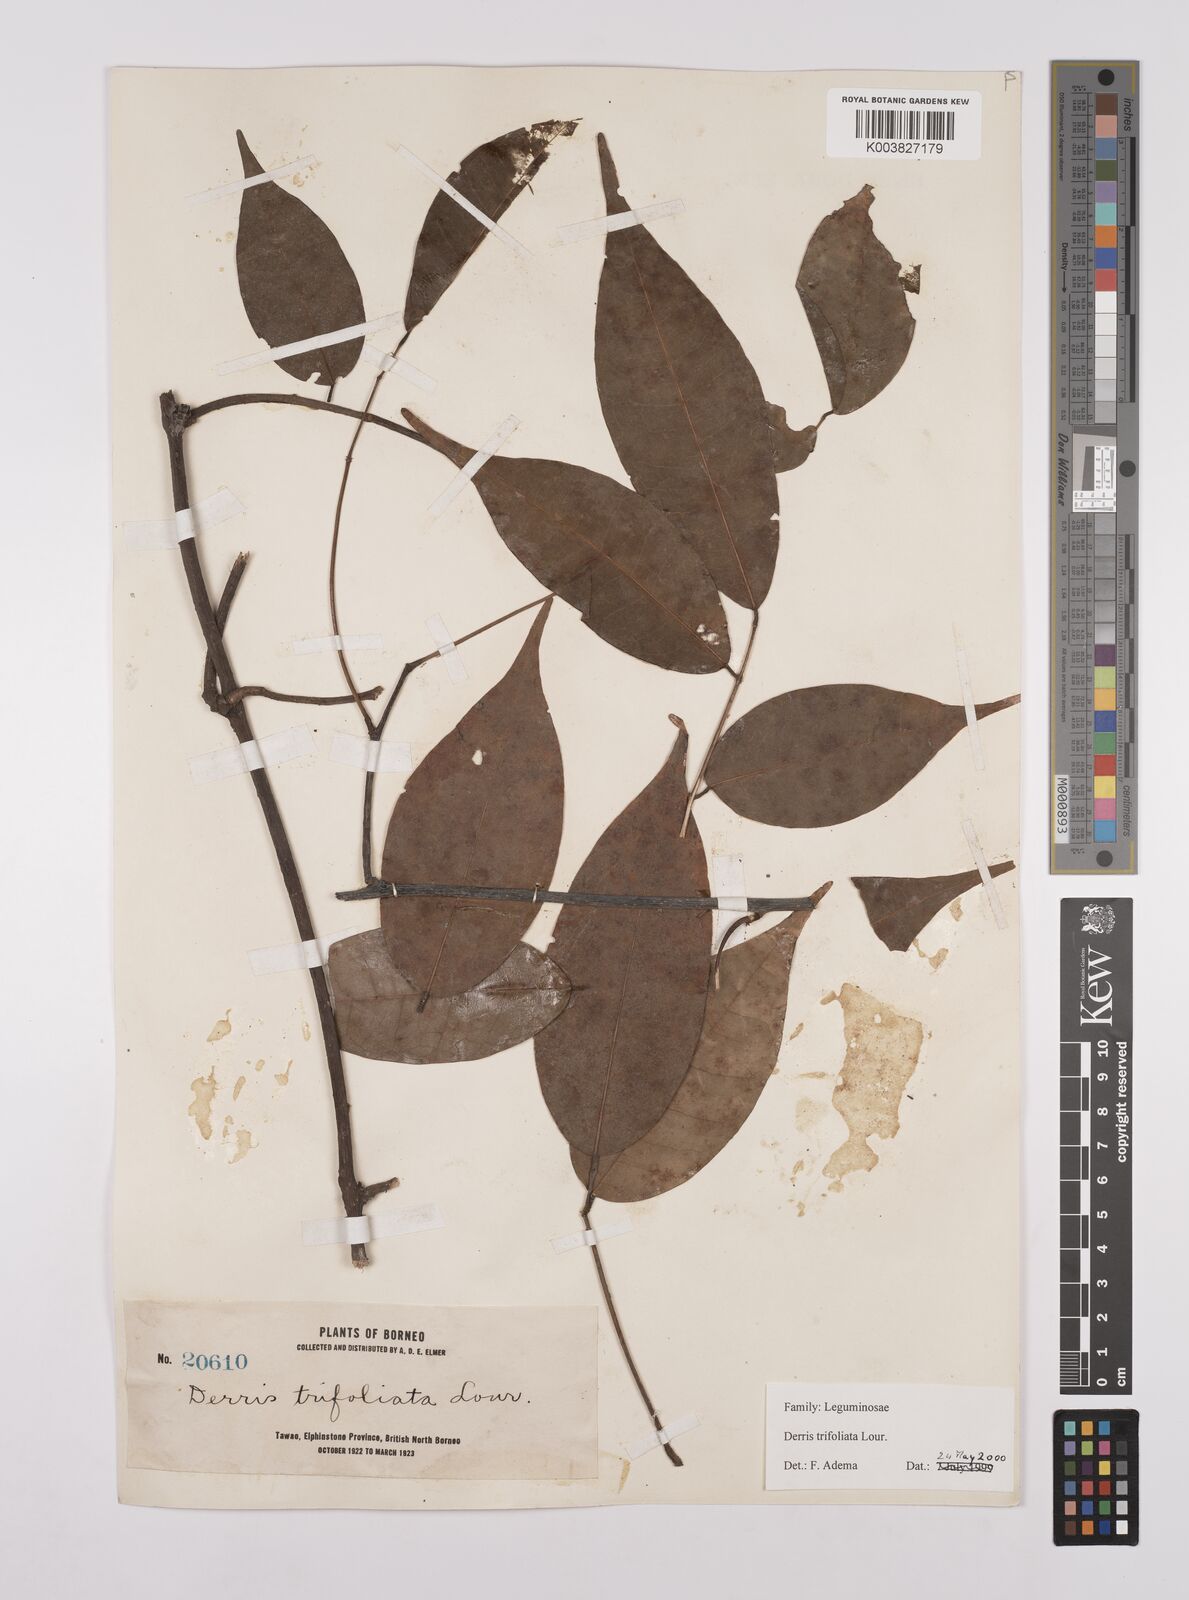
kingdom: Plantae
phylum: Tracheophyta
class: Magnoliopsida
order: Fabales
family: Fabaceae
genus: Derris
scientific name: Derris trifoliata
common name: Three-leaf derris
